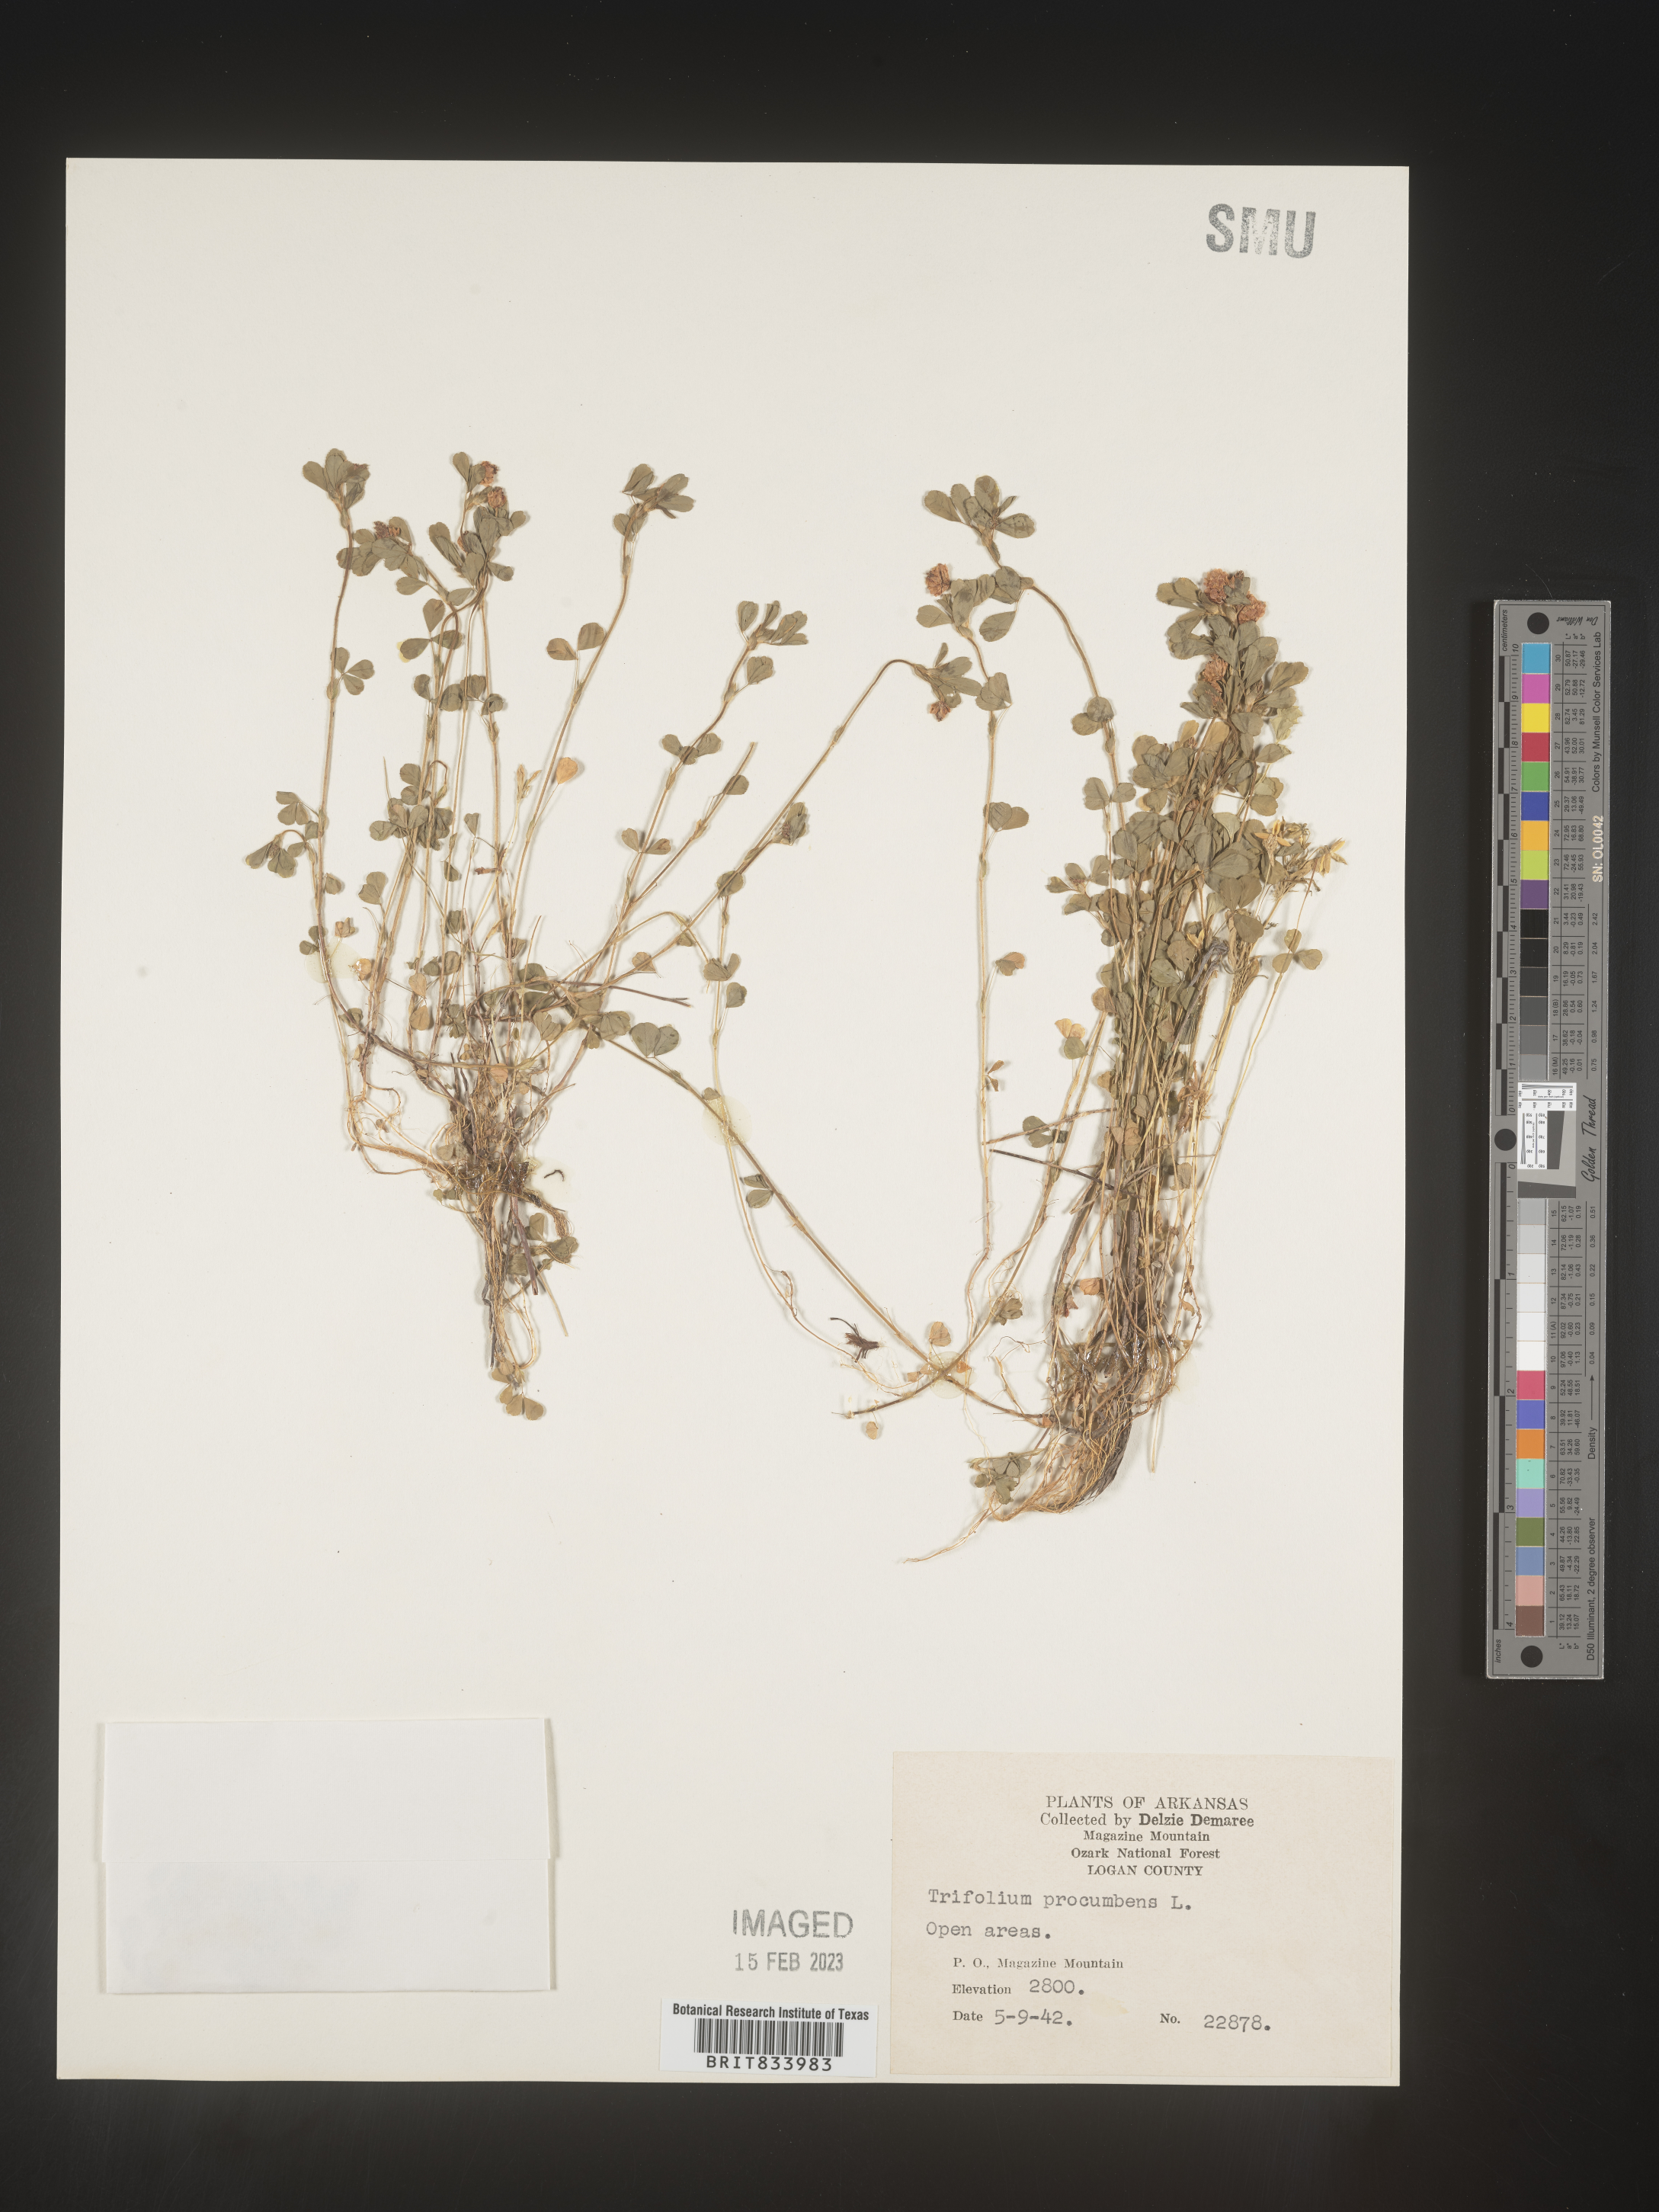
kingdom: Plantae
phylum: Tracheophyta
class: Magnoliopsida
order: Fabales
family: Fabaceae
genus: Trifolium
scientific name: Trifolium campestre
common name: Field clover
